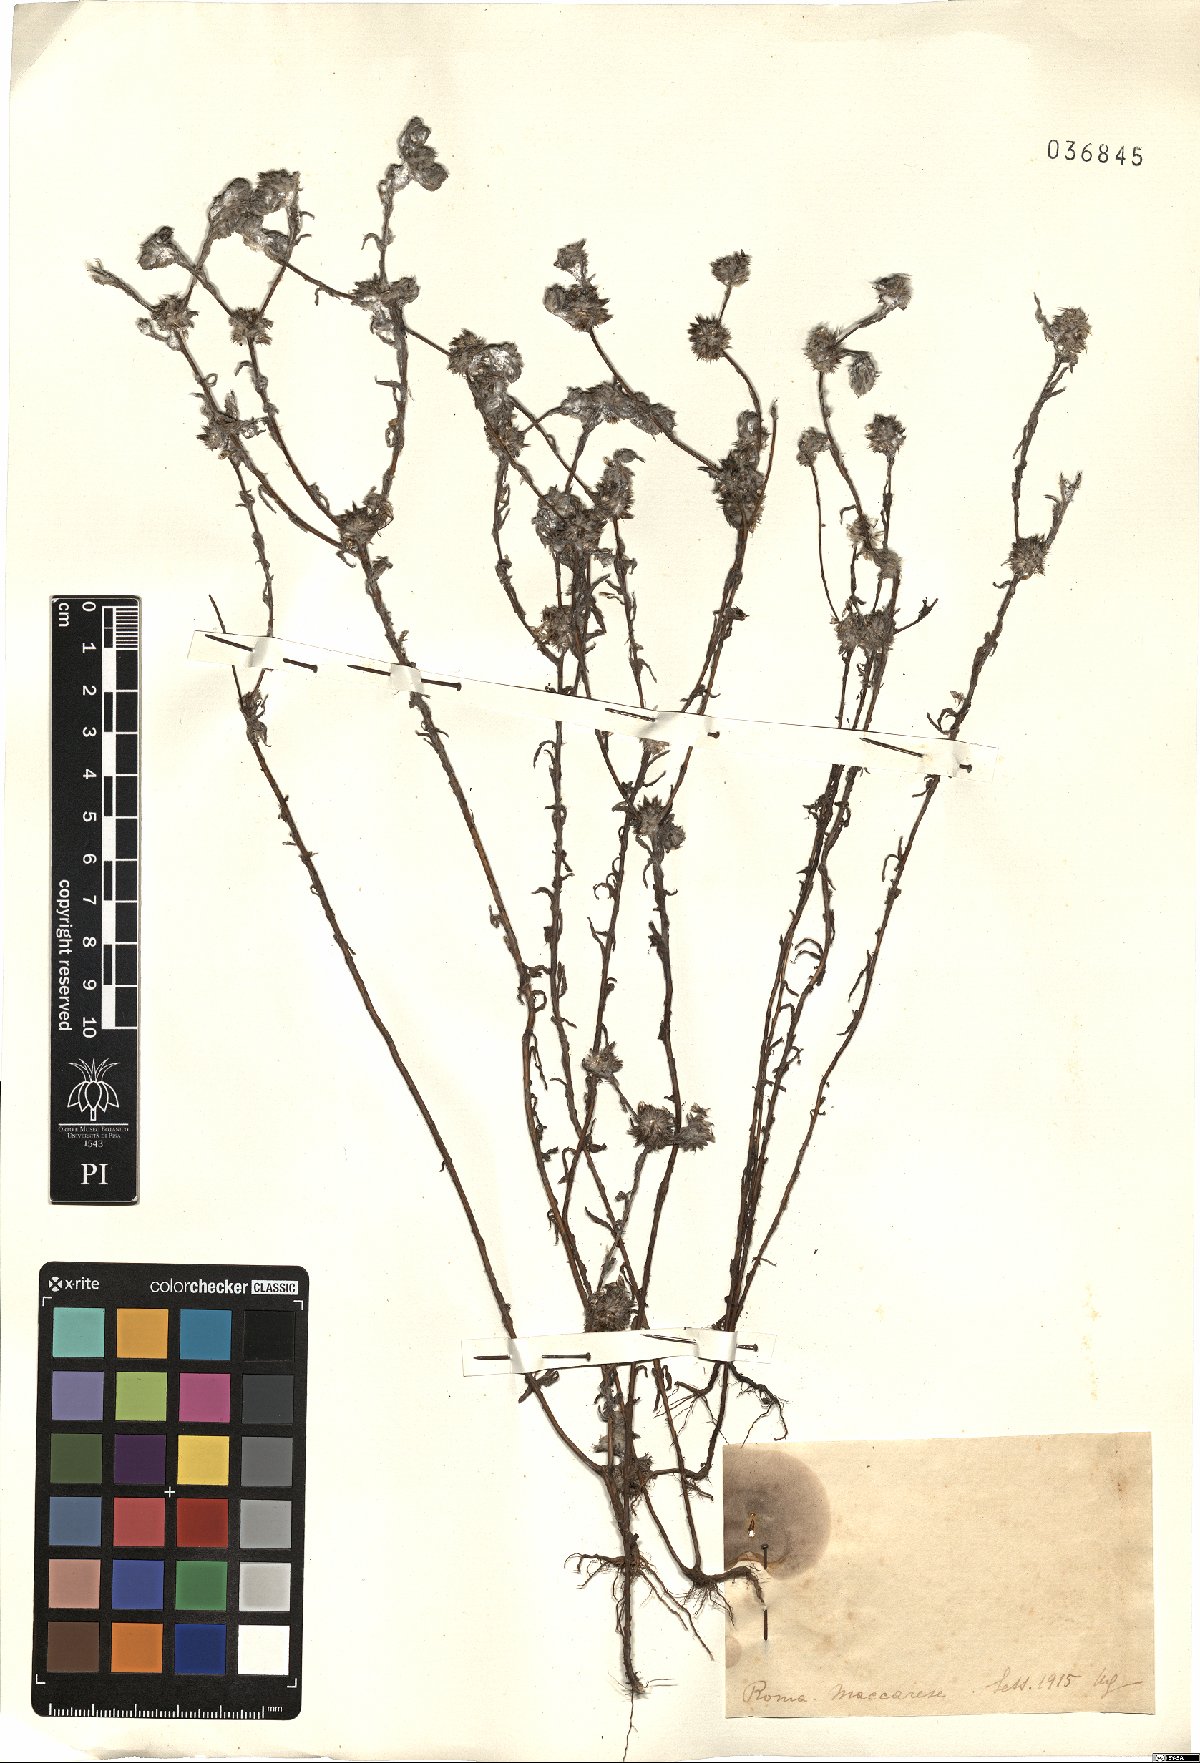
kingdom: Plantae
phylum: Tracheophyta
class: Magnoliopsida
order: Asterales
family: Asteraceae
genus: Filago
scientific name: Filago
